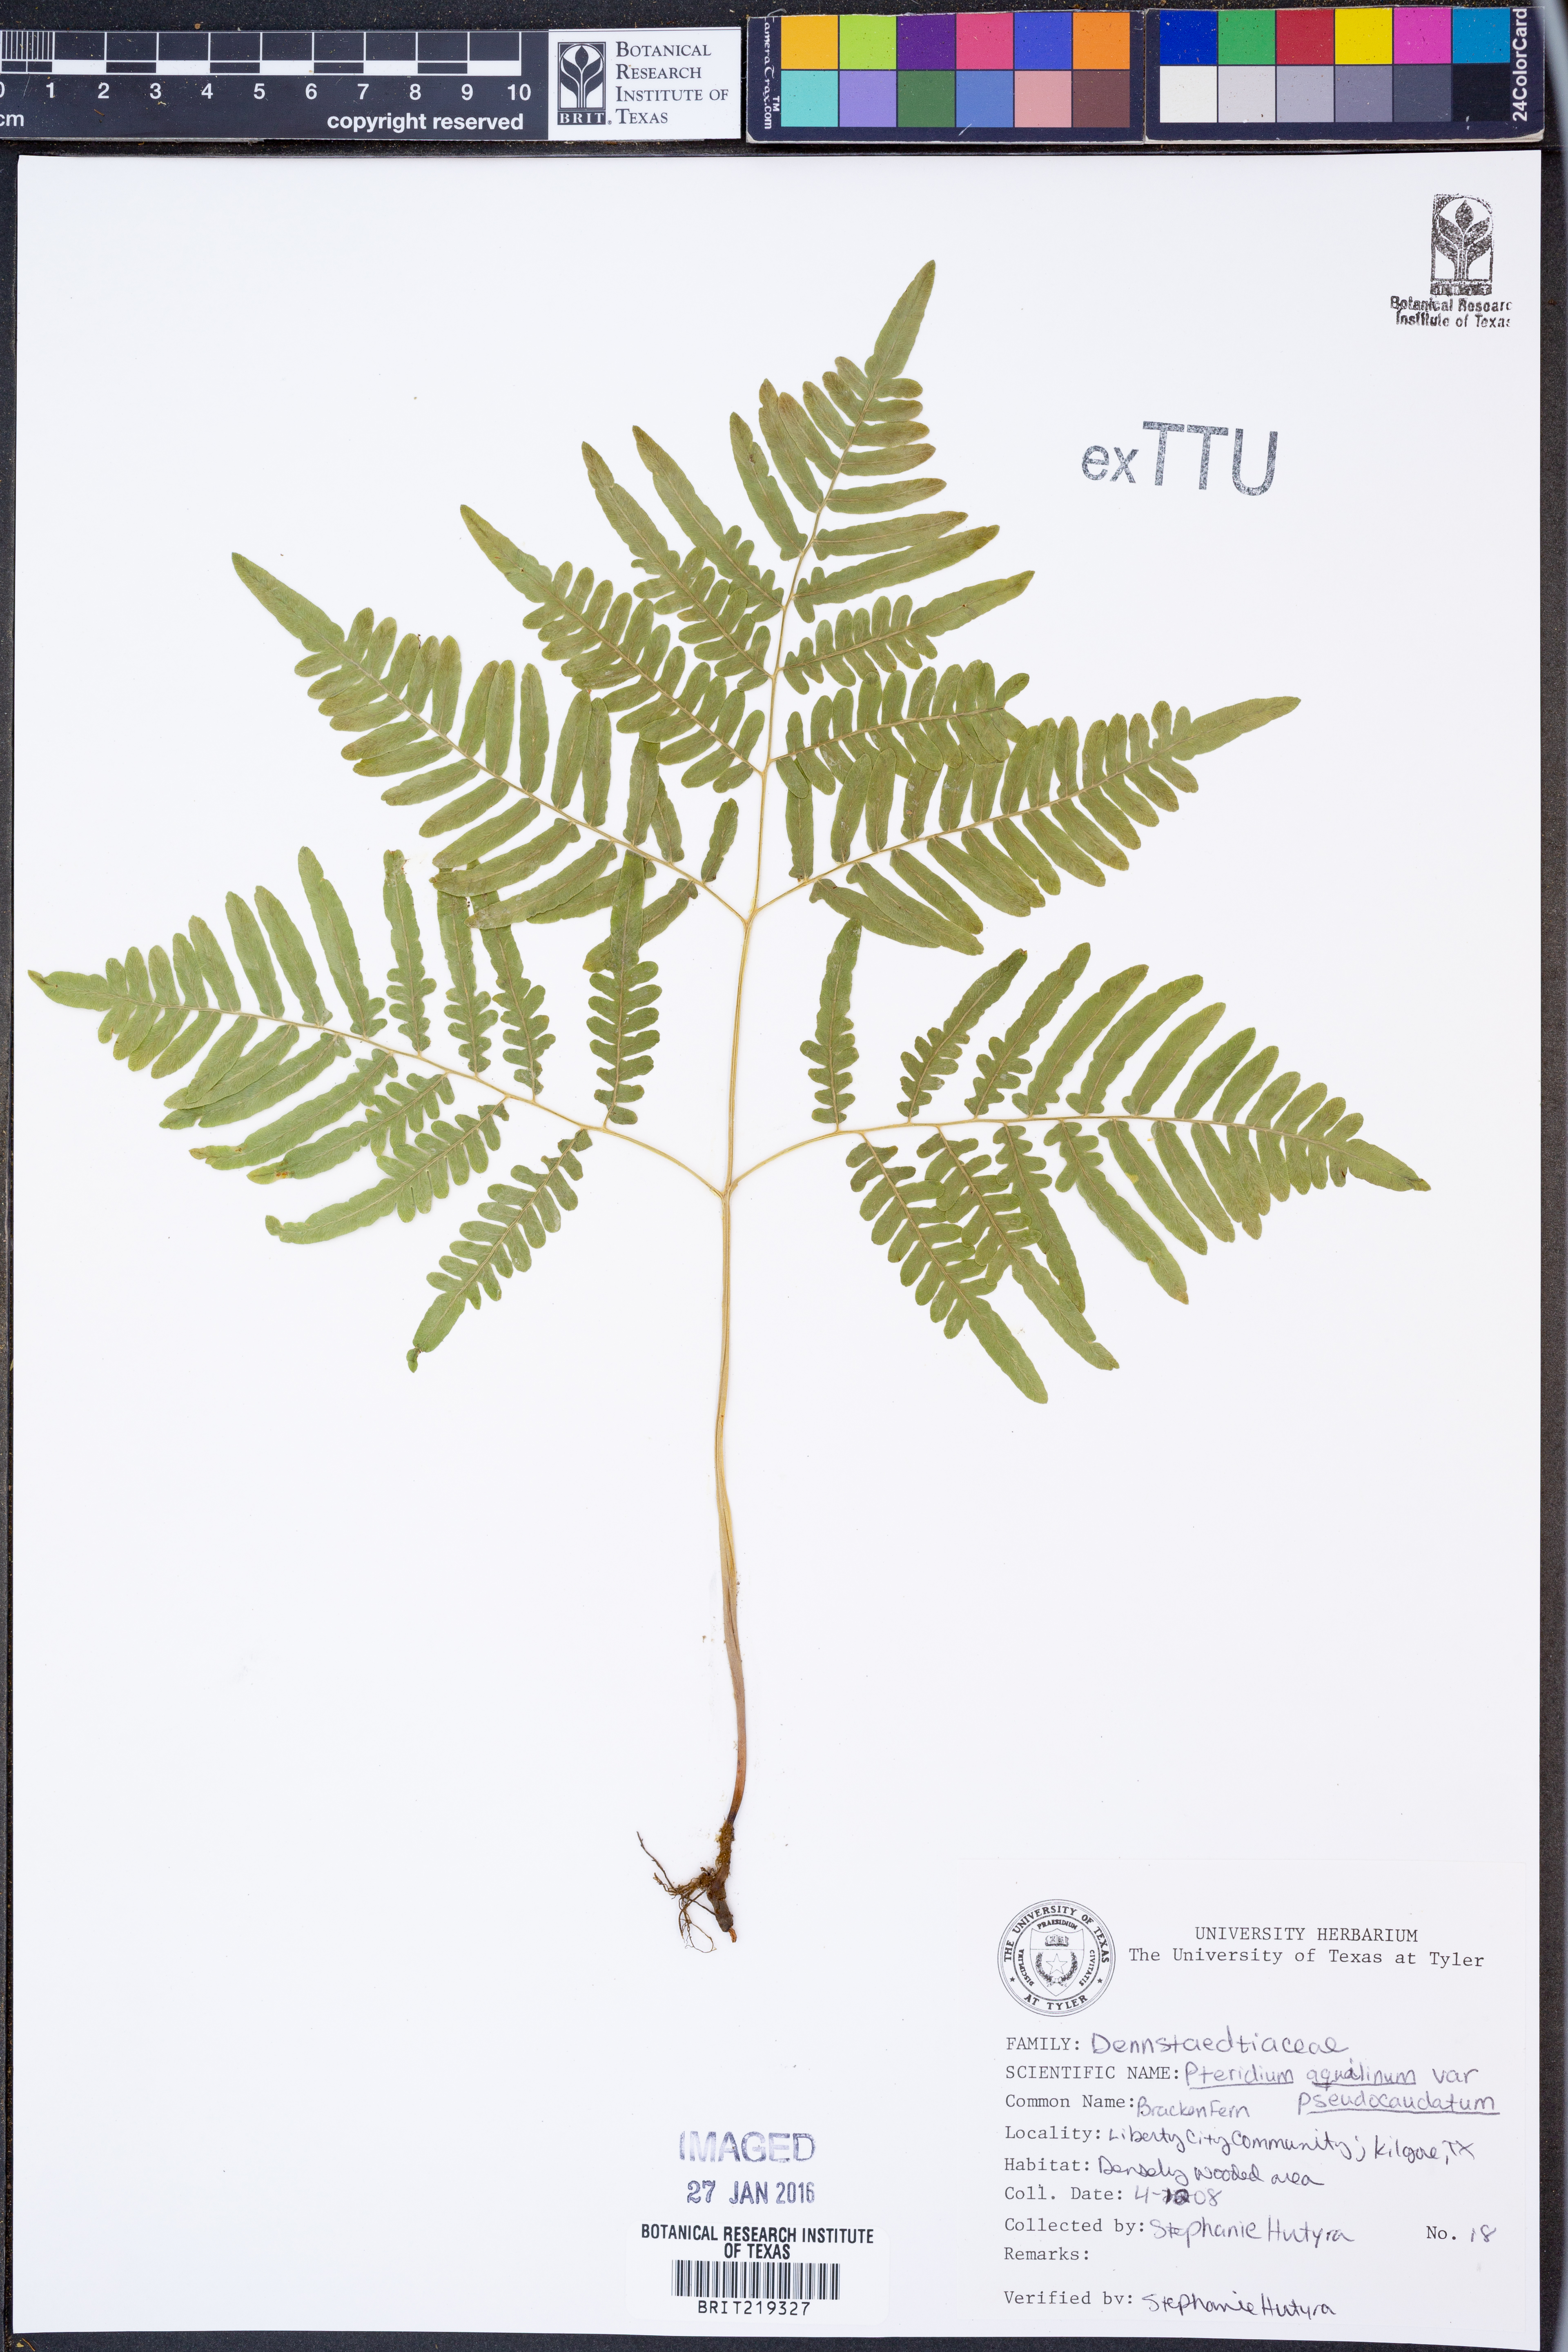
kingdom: Plantae
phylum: Tracheophyta
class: Polypodiopsida
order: Polypodiales
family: Dennstaedtiaceae
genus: Pteridium
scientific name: Pteridium aquilinum
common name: Bracken
